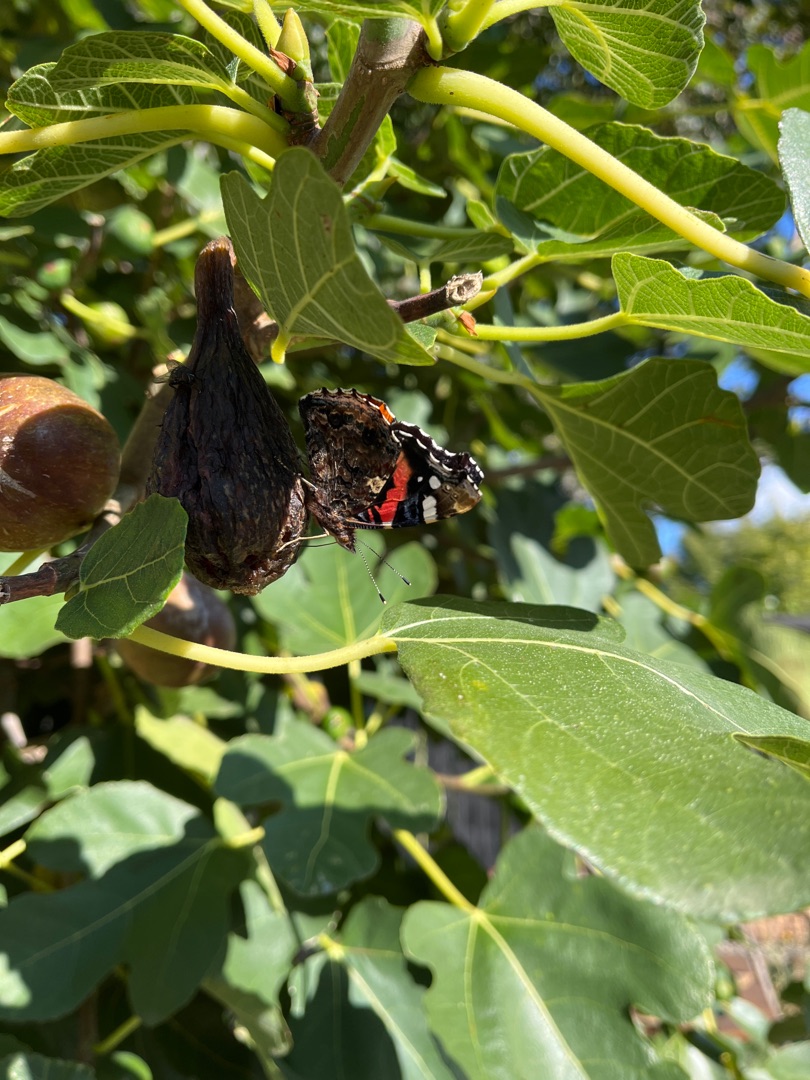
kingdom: Animalia
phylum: Arthropoda
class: Insecta
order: Lepidoptera
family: Nymphalidae
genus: Vanessa
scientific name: Vanessa atalanta
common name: Admiral
